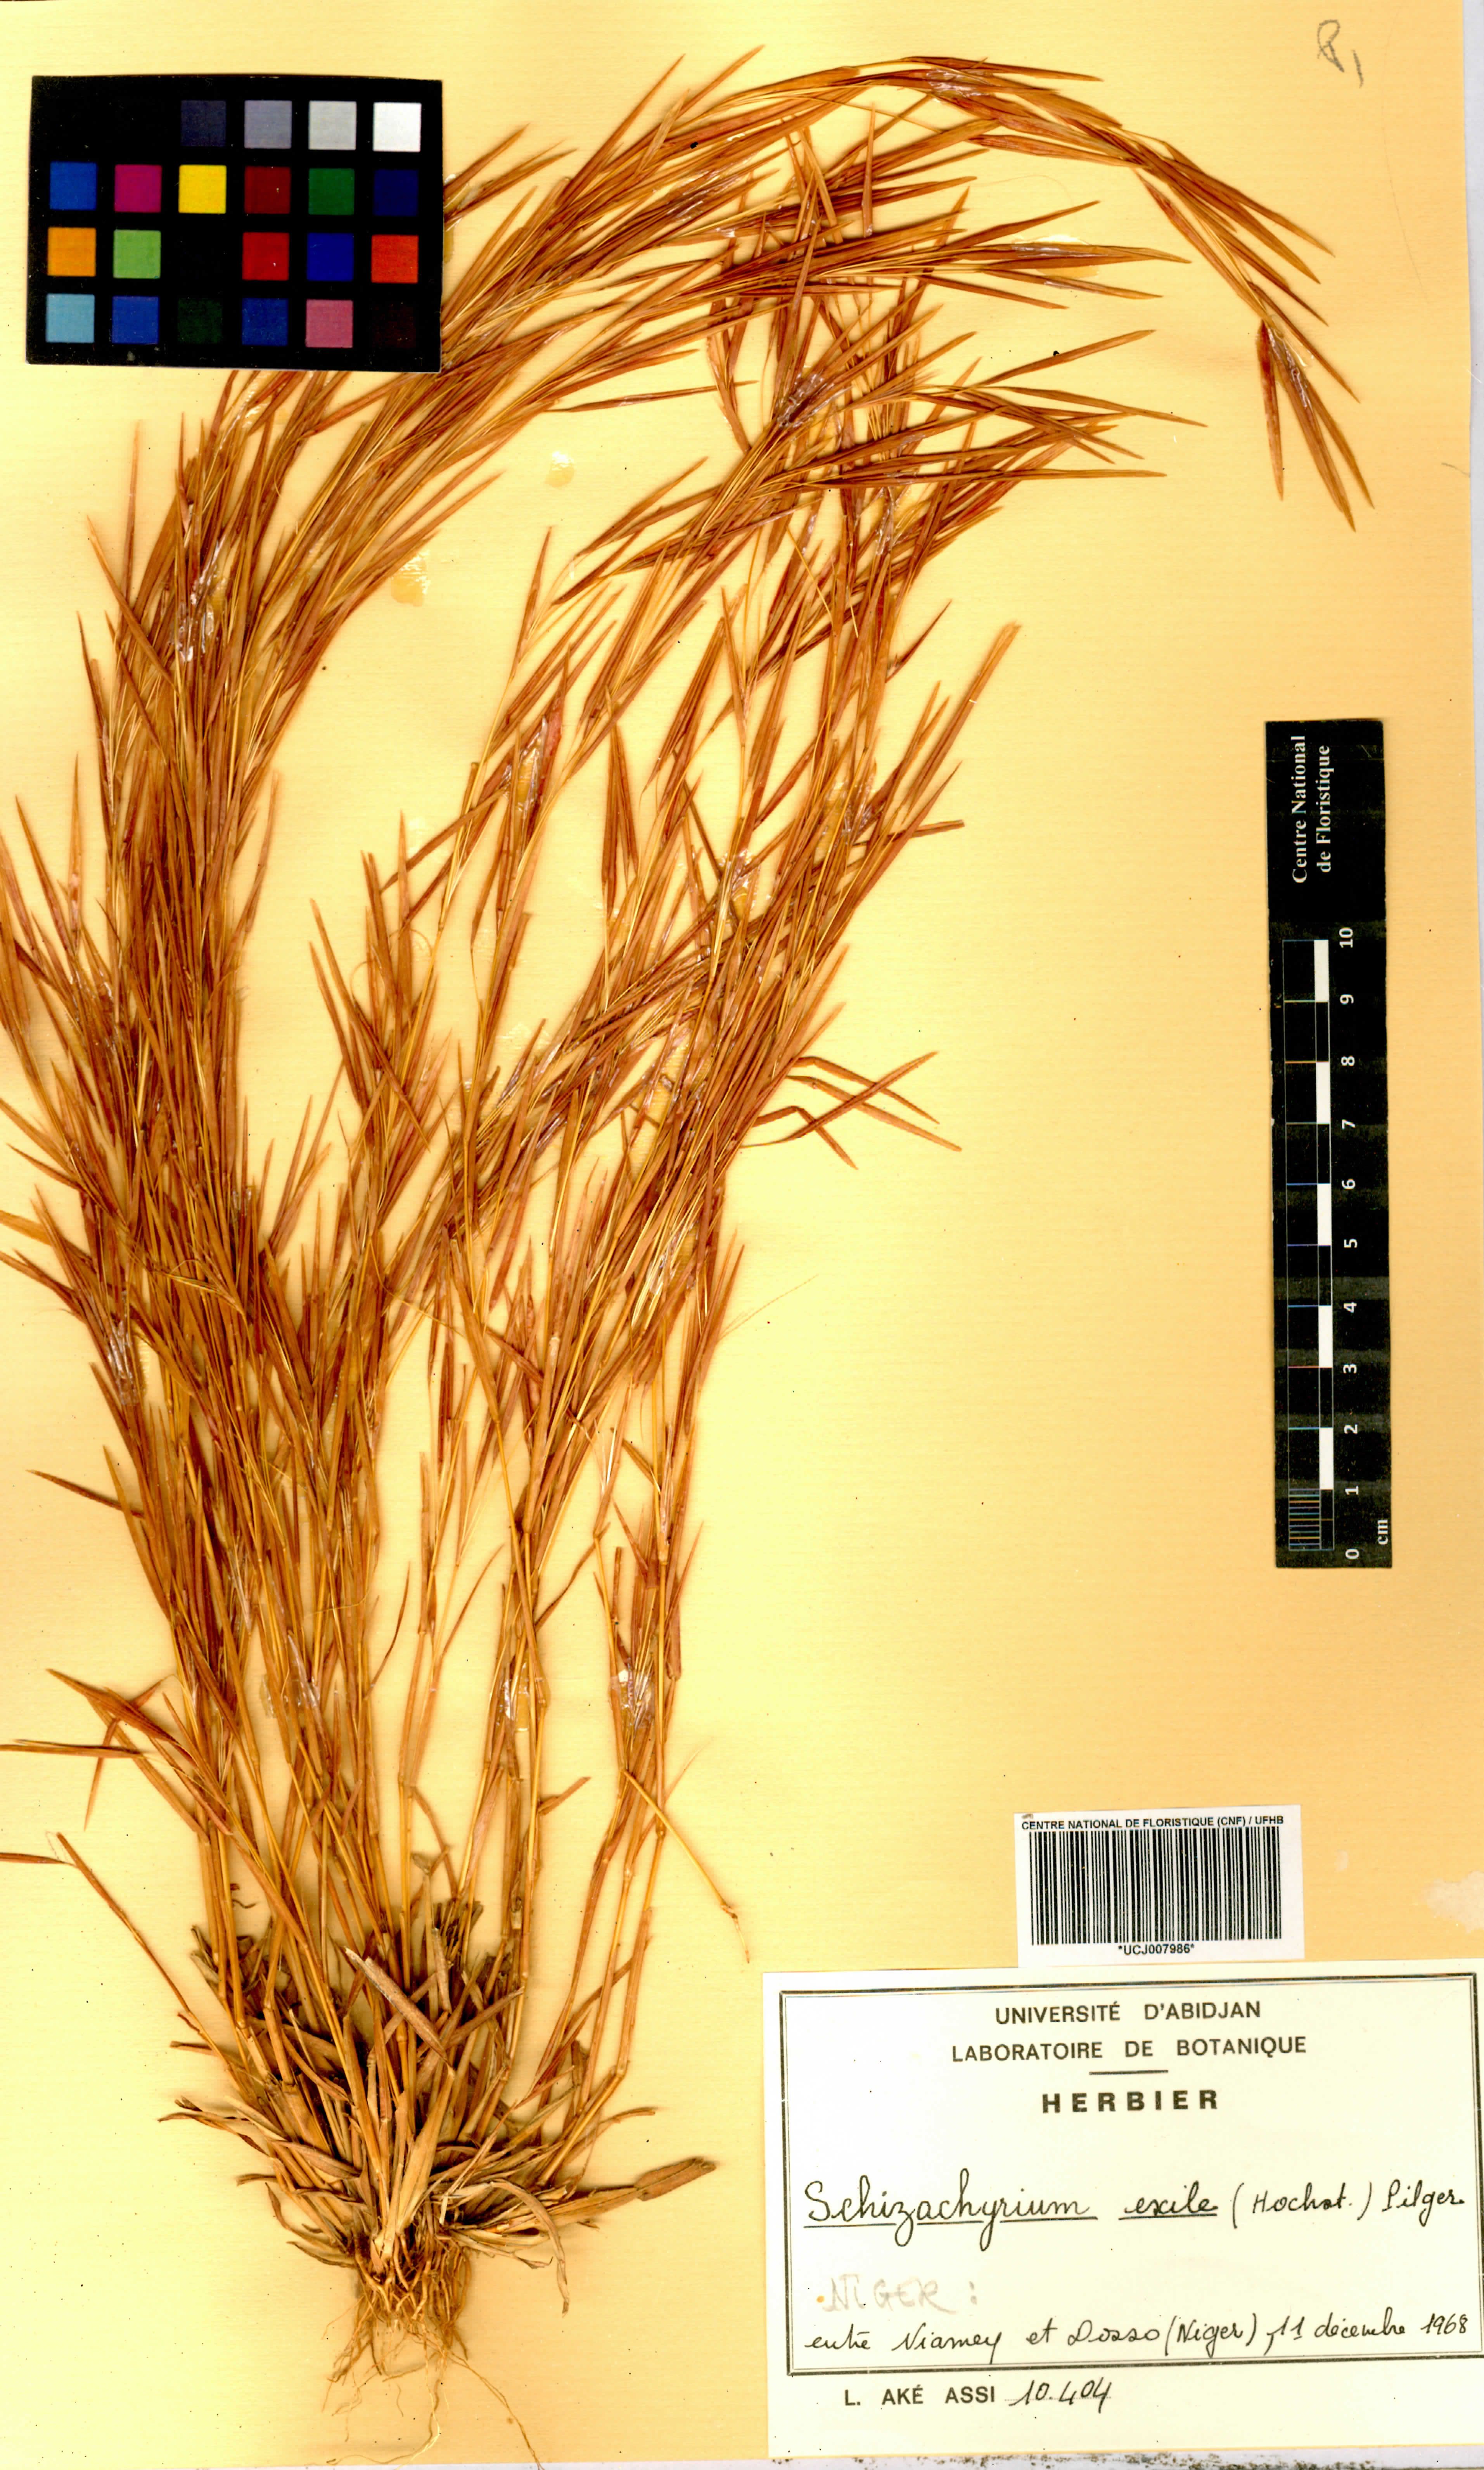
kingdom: Plantae
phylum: Tracheophyta
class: Liliopsida
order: Poales
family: Poaceae
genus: Schizachyrium
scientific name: Schizachyrium exile
